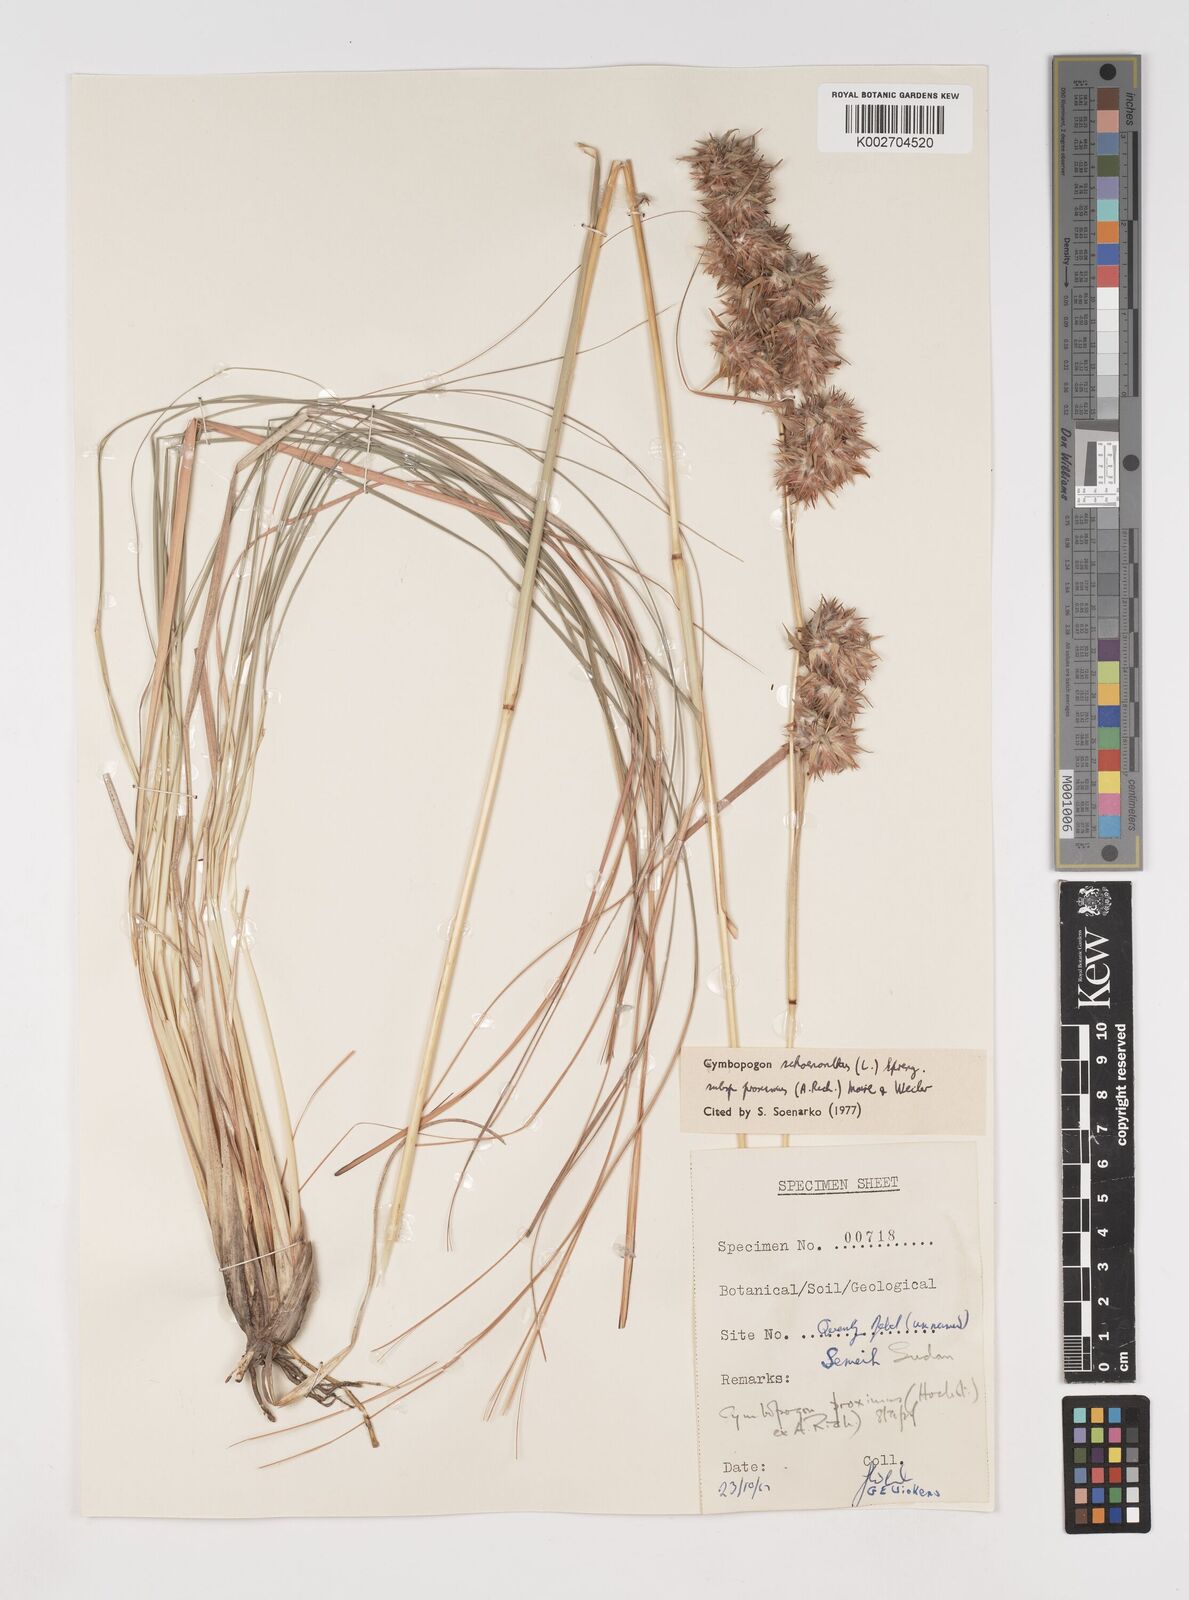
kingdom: Plantae
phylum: Tracheophyta
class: Liliopsida
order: Poales
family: Poaceae
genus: Cymbopogon
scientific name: Cymbopogon schoenanthus
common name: Geranium grass
